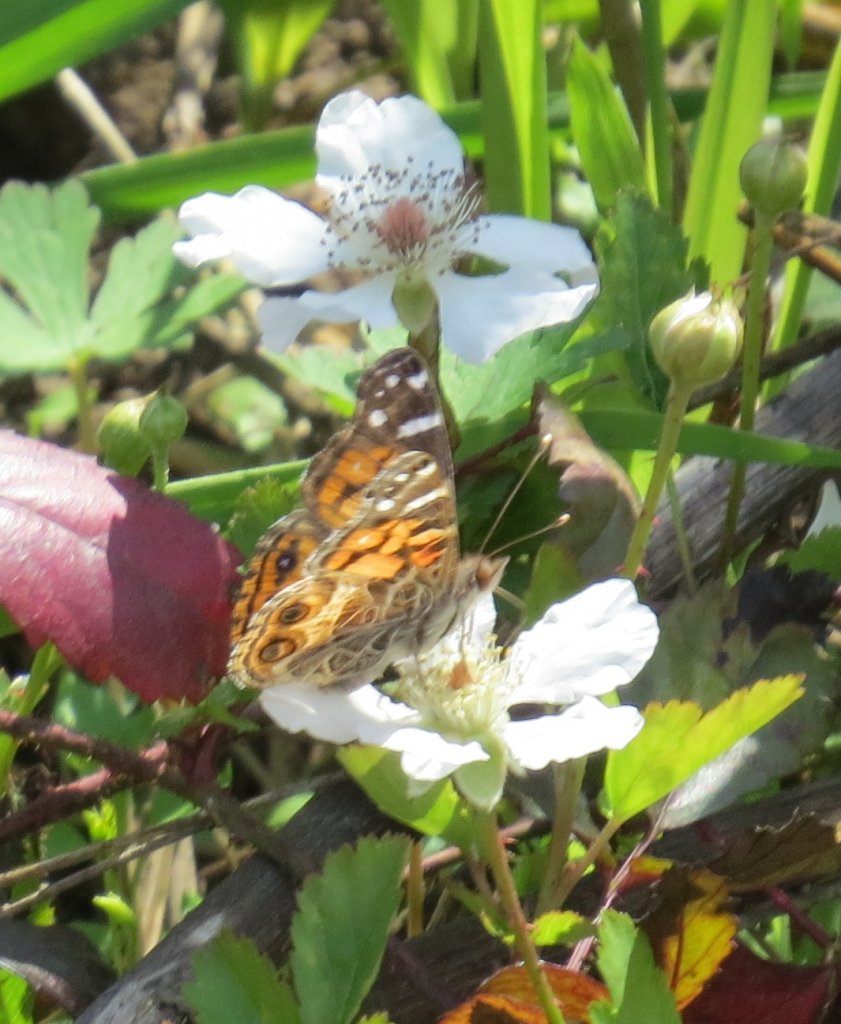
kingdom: Animalia
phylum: Arthropoda
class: Insecta
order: Lepidoptera
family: Nymphalidae
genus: Vanessa
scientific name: Vanessa virginiensis
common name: American Lady
